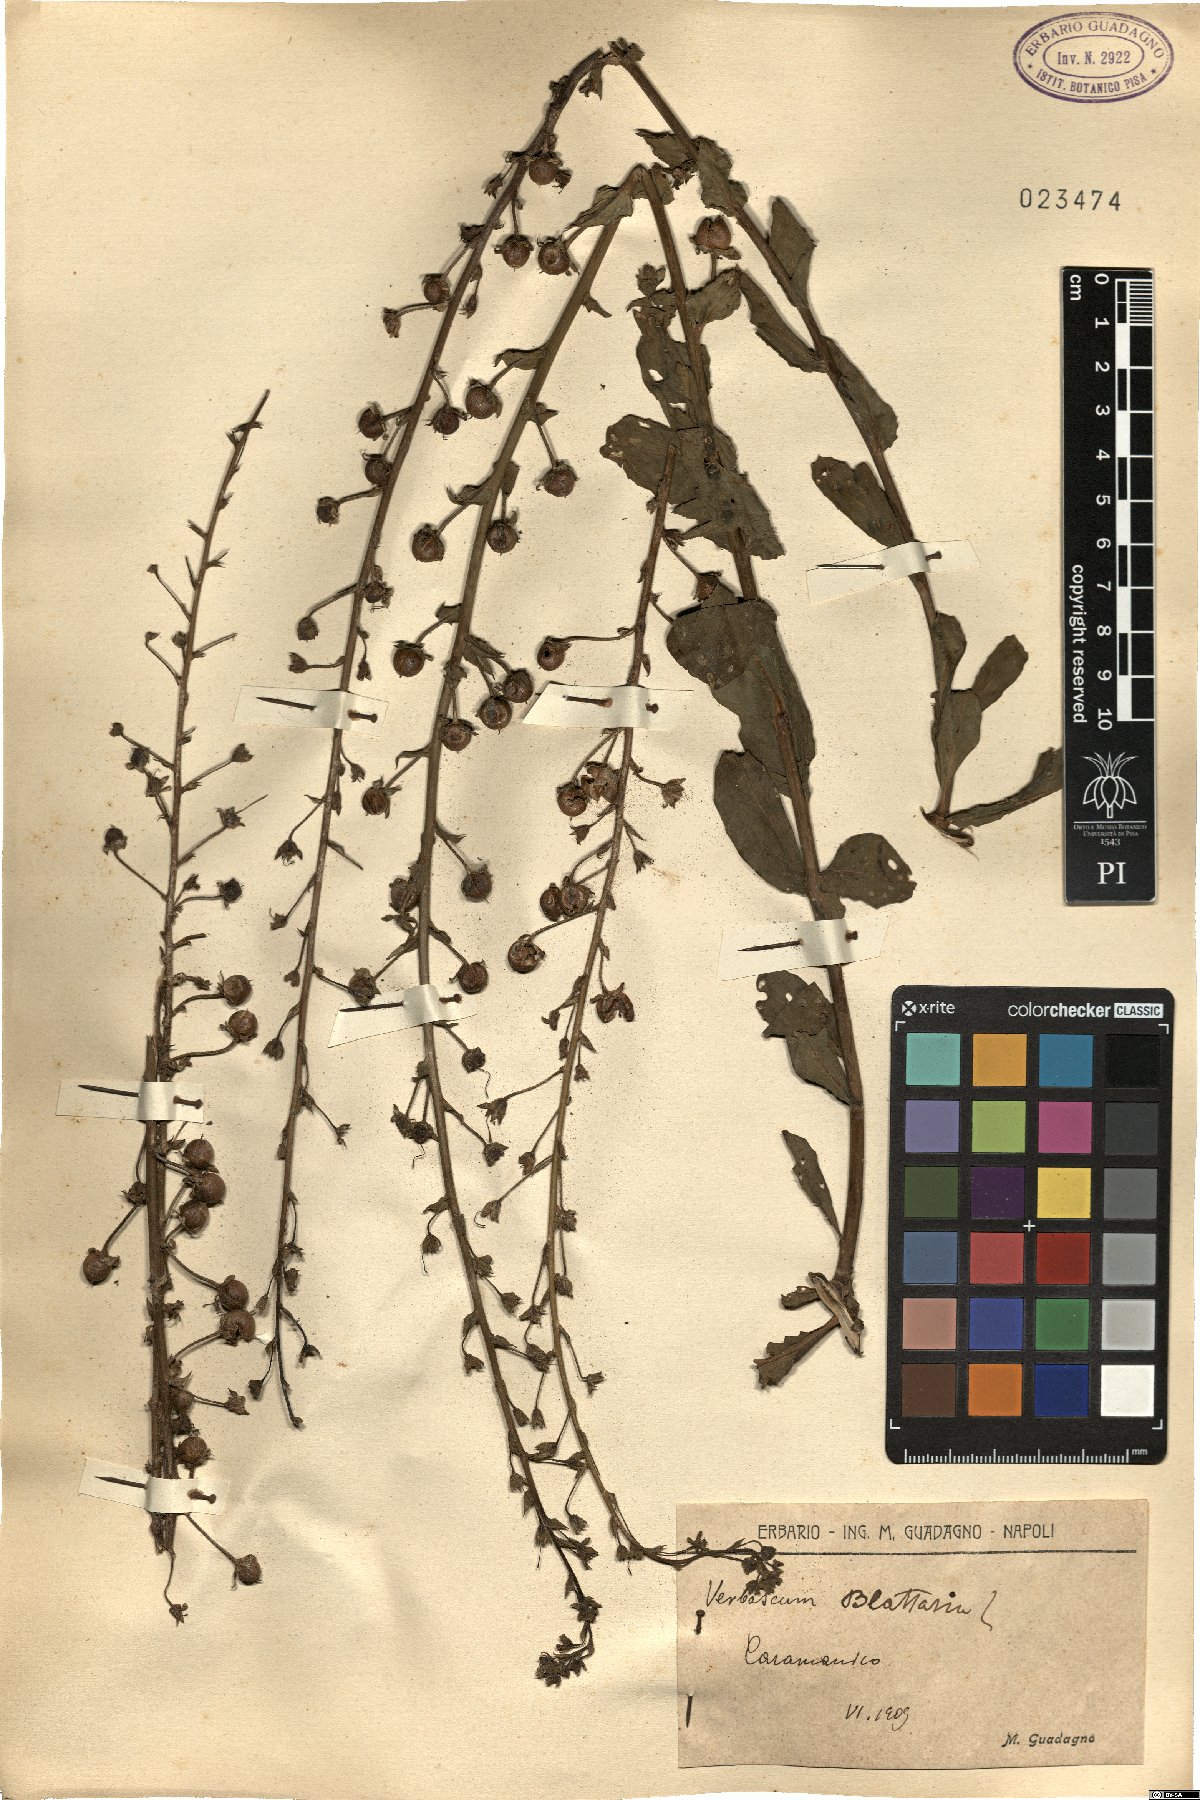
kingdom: Plantae
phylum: Tracheophyta
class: Magnoliopsida
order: Lamiales
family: Scrophulariaceae
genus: Verbascum
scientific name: Verbascum blattaria
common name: Moth mullein
